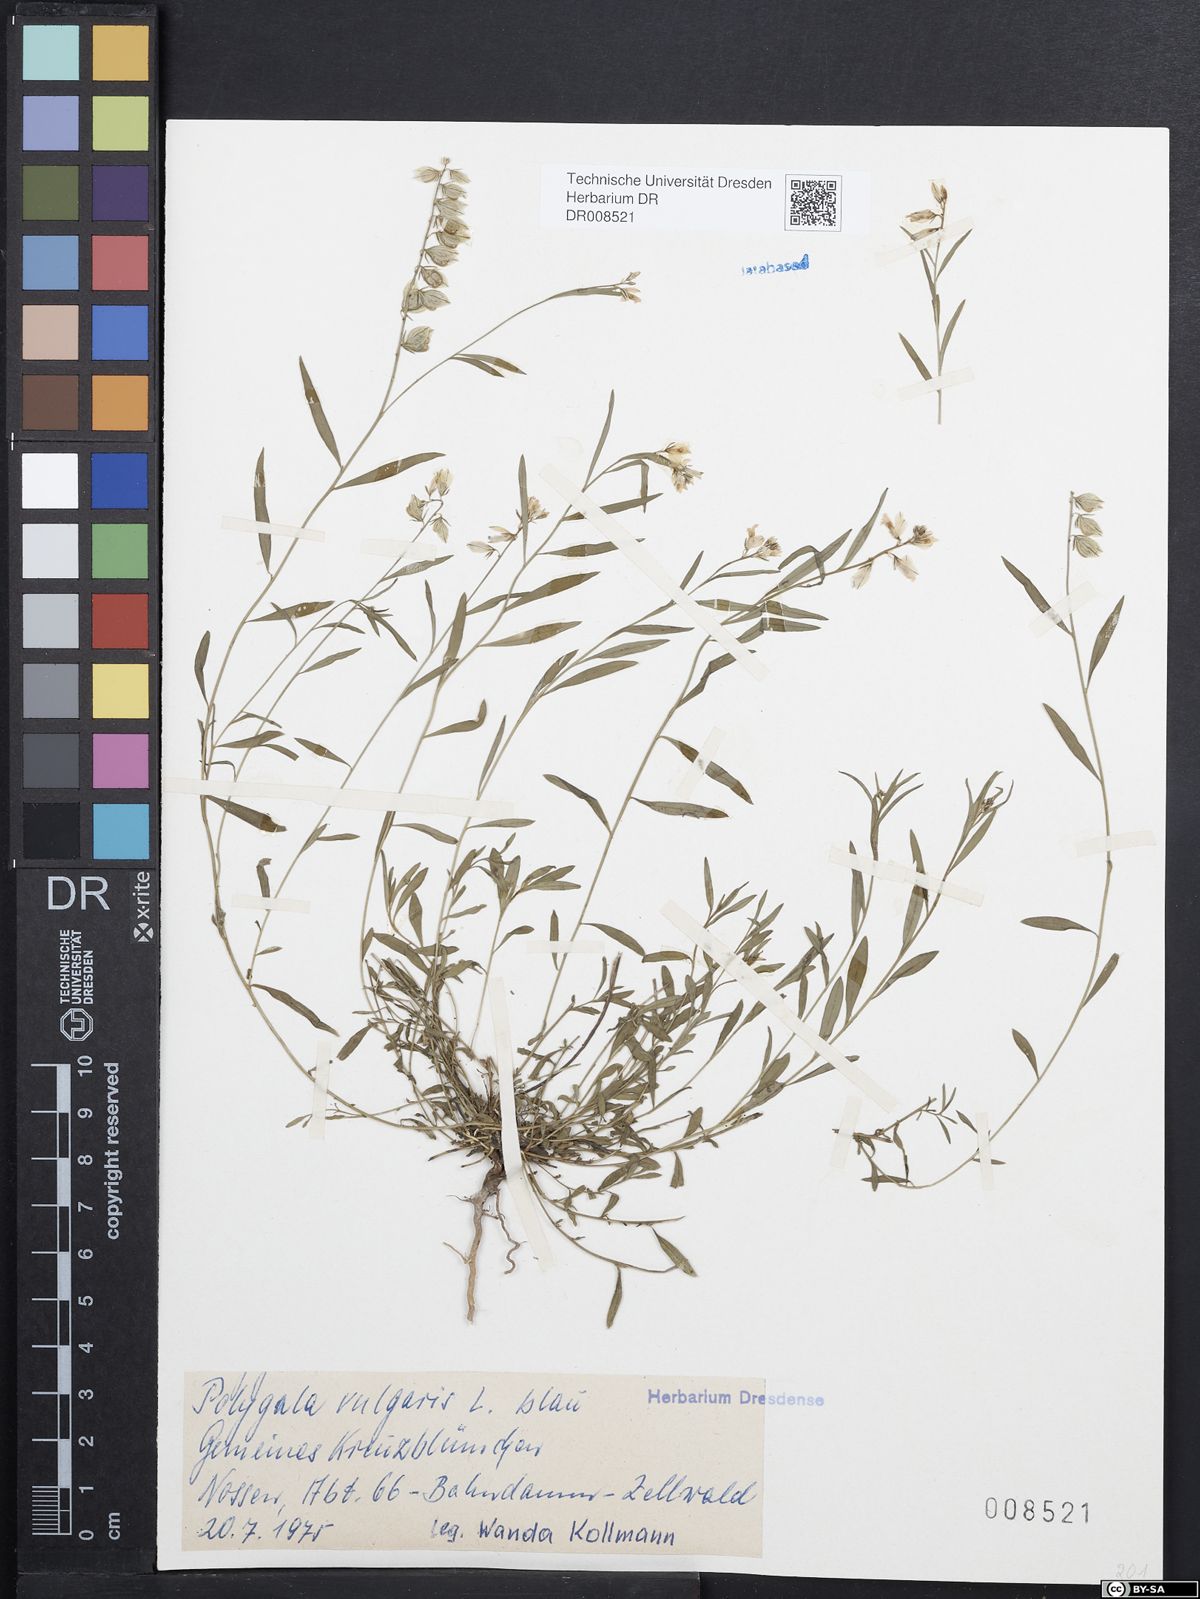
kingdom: Plantae
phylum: Tracheophyta
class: Magnoliopsida
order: Fabales
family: Polygalaceae
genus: Polygala
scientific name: Polygala vulgaris
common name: Common milkwort
